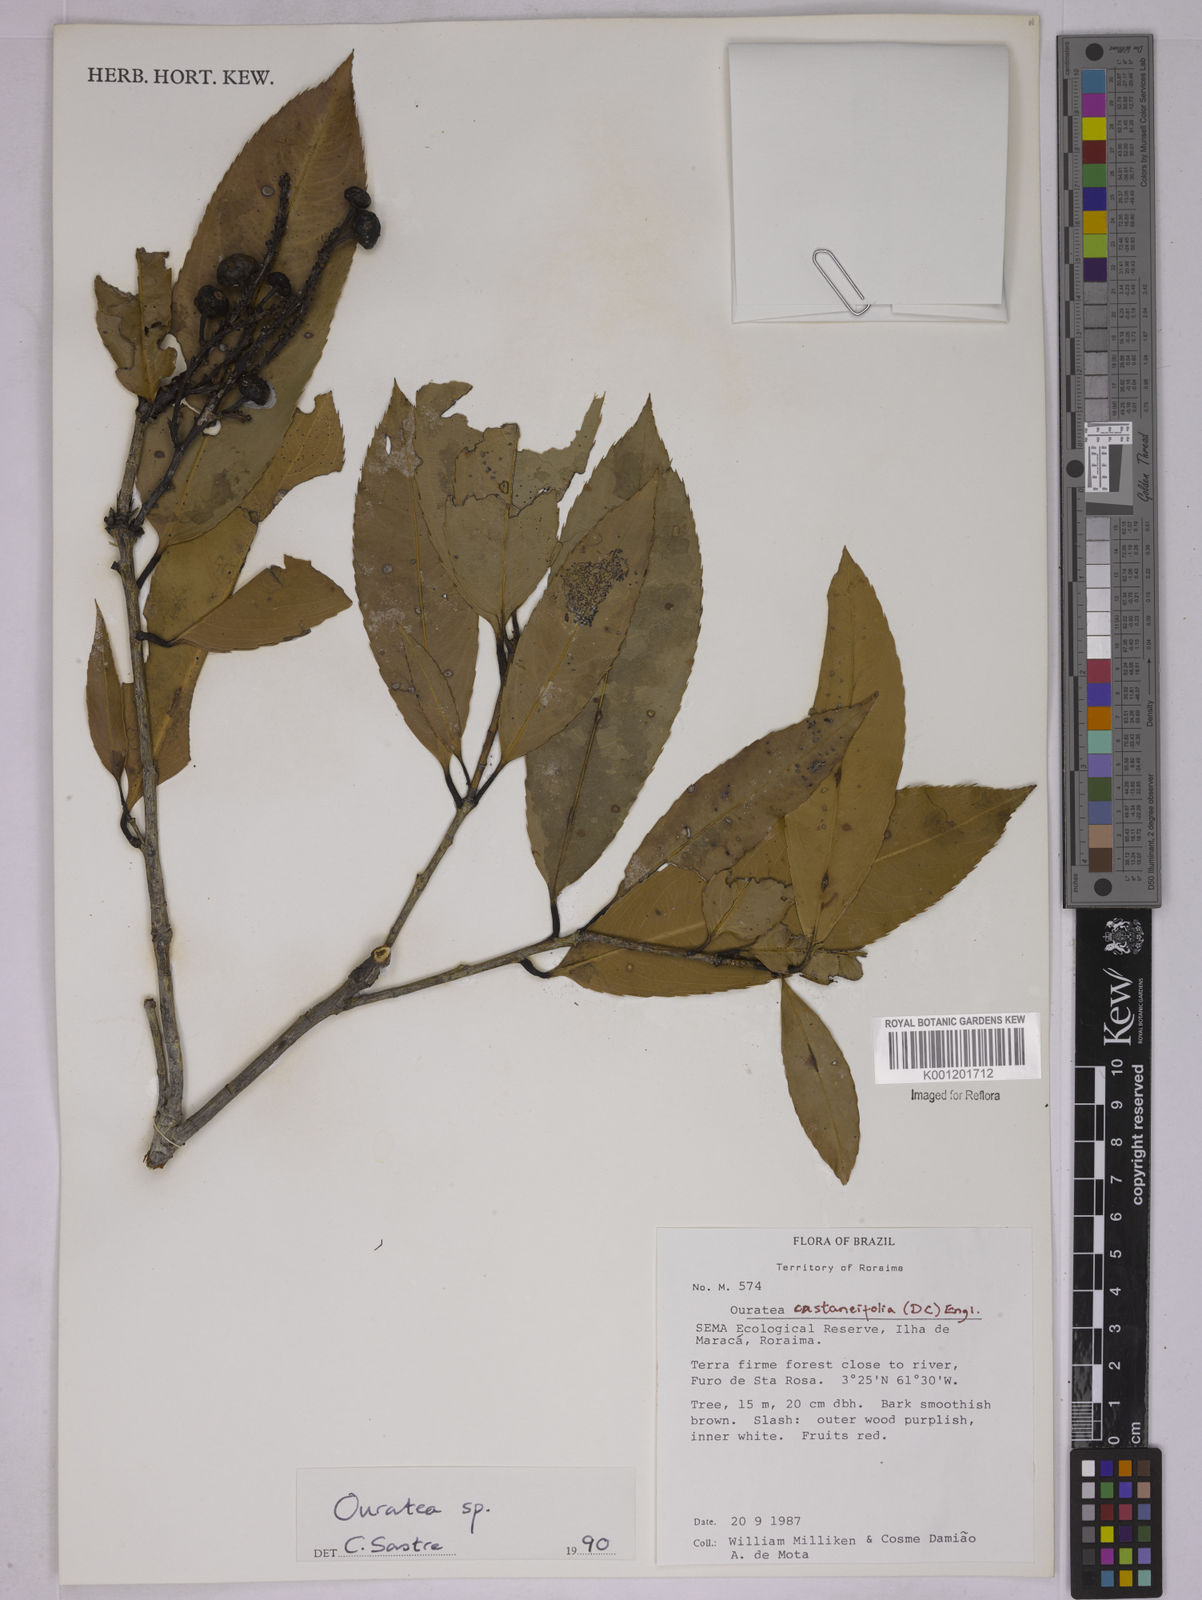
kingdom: Plantae
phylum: Tracheophyta
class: Magnoliopsida
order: Malpighiales
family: Ochnaceae
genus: Ouratea
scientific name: Ouratea castaneifolia
